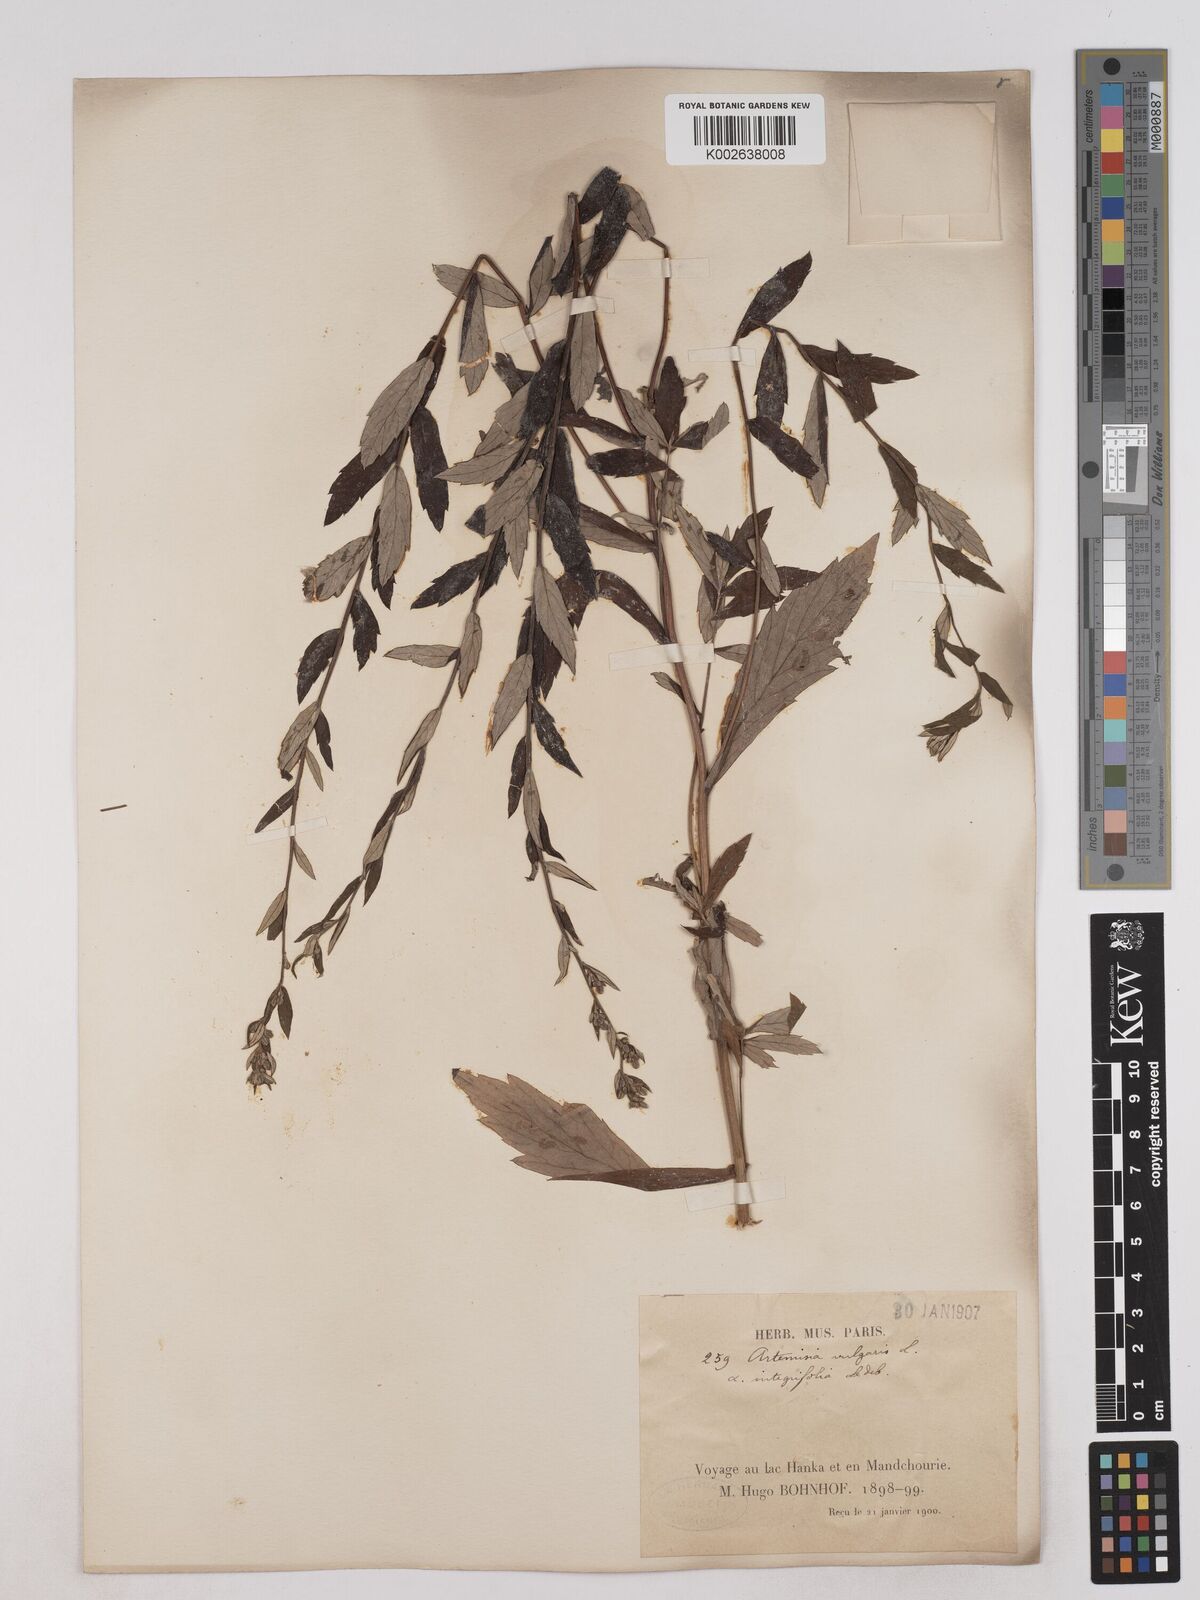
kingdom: Plantae
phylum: Tracheophyta
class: Magnoliopsida
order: Asterales
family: Asteraceae
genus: Artemisia
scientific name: Artemisia integrifolia
